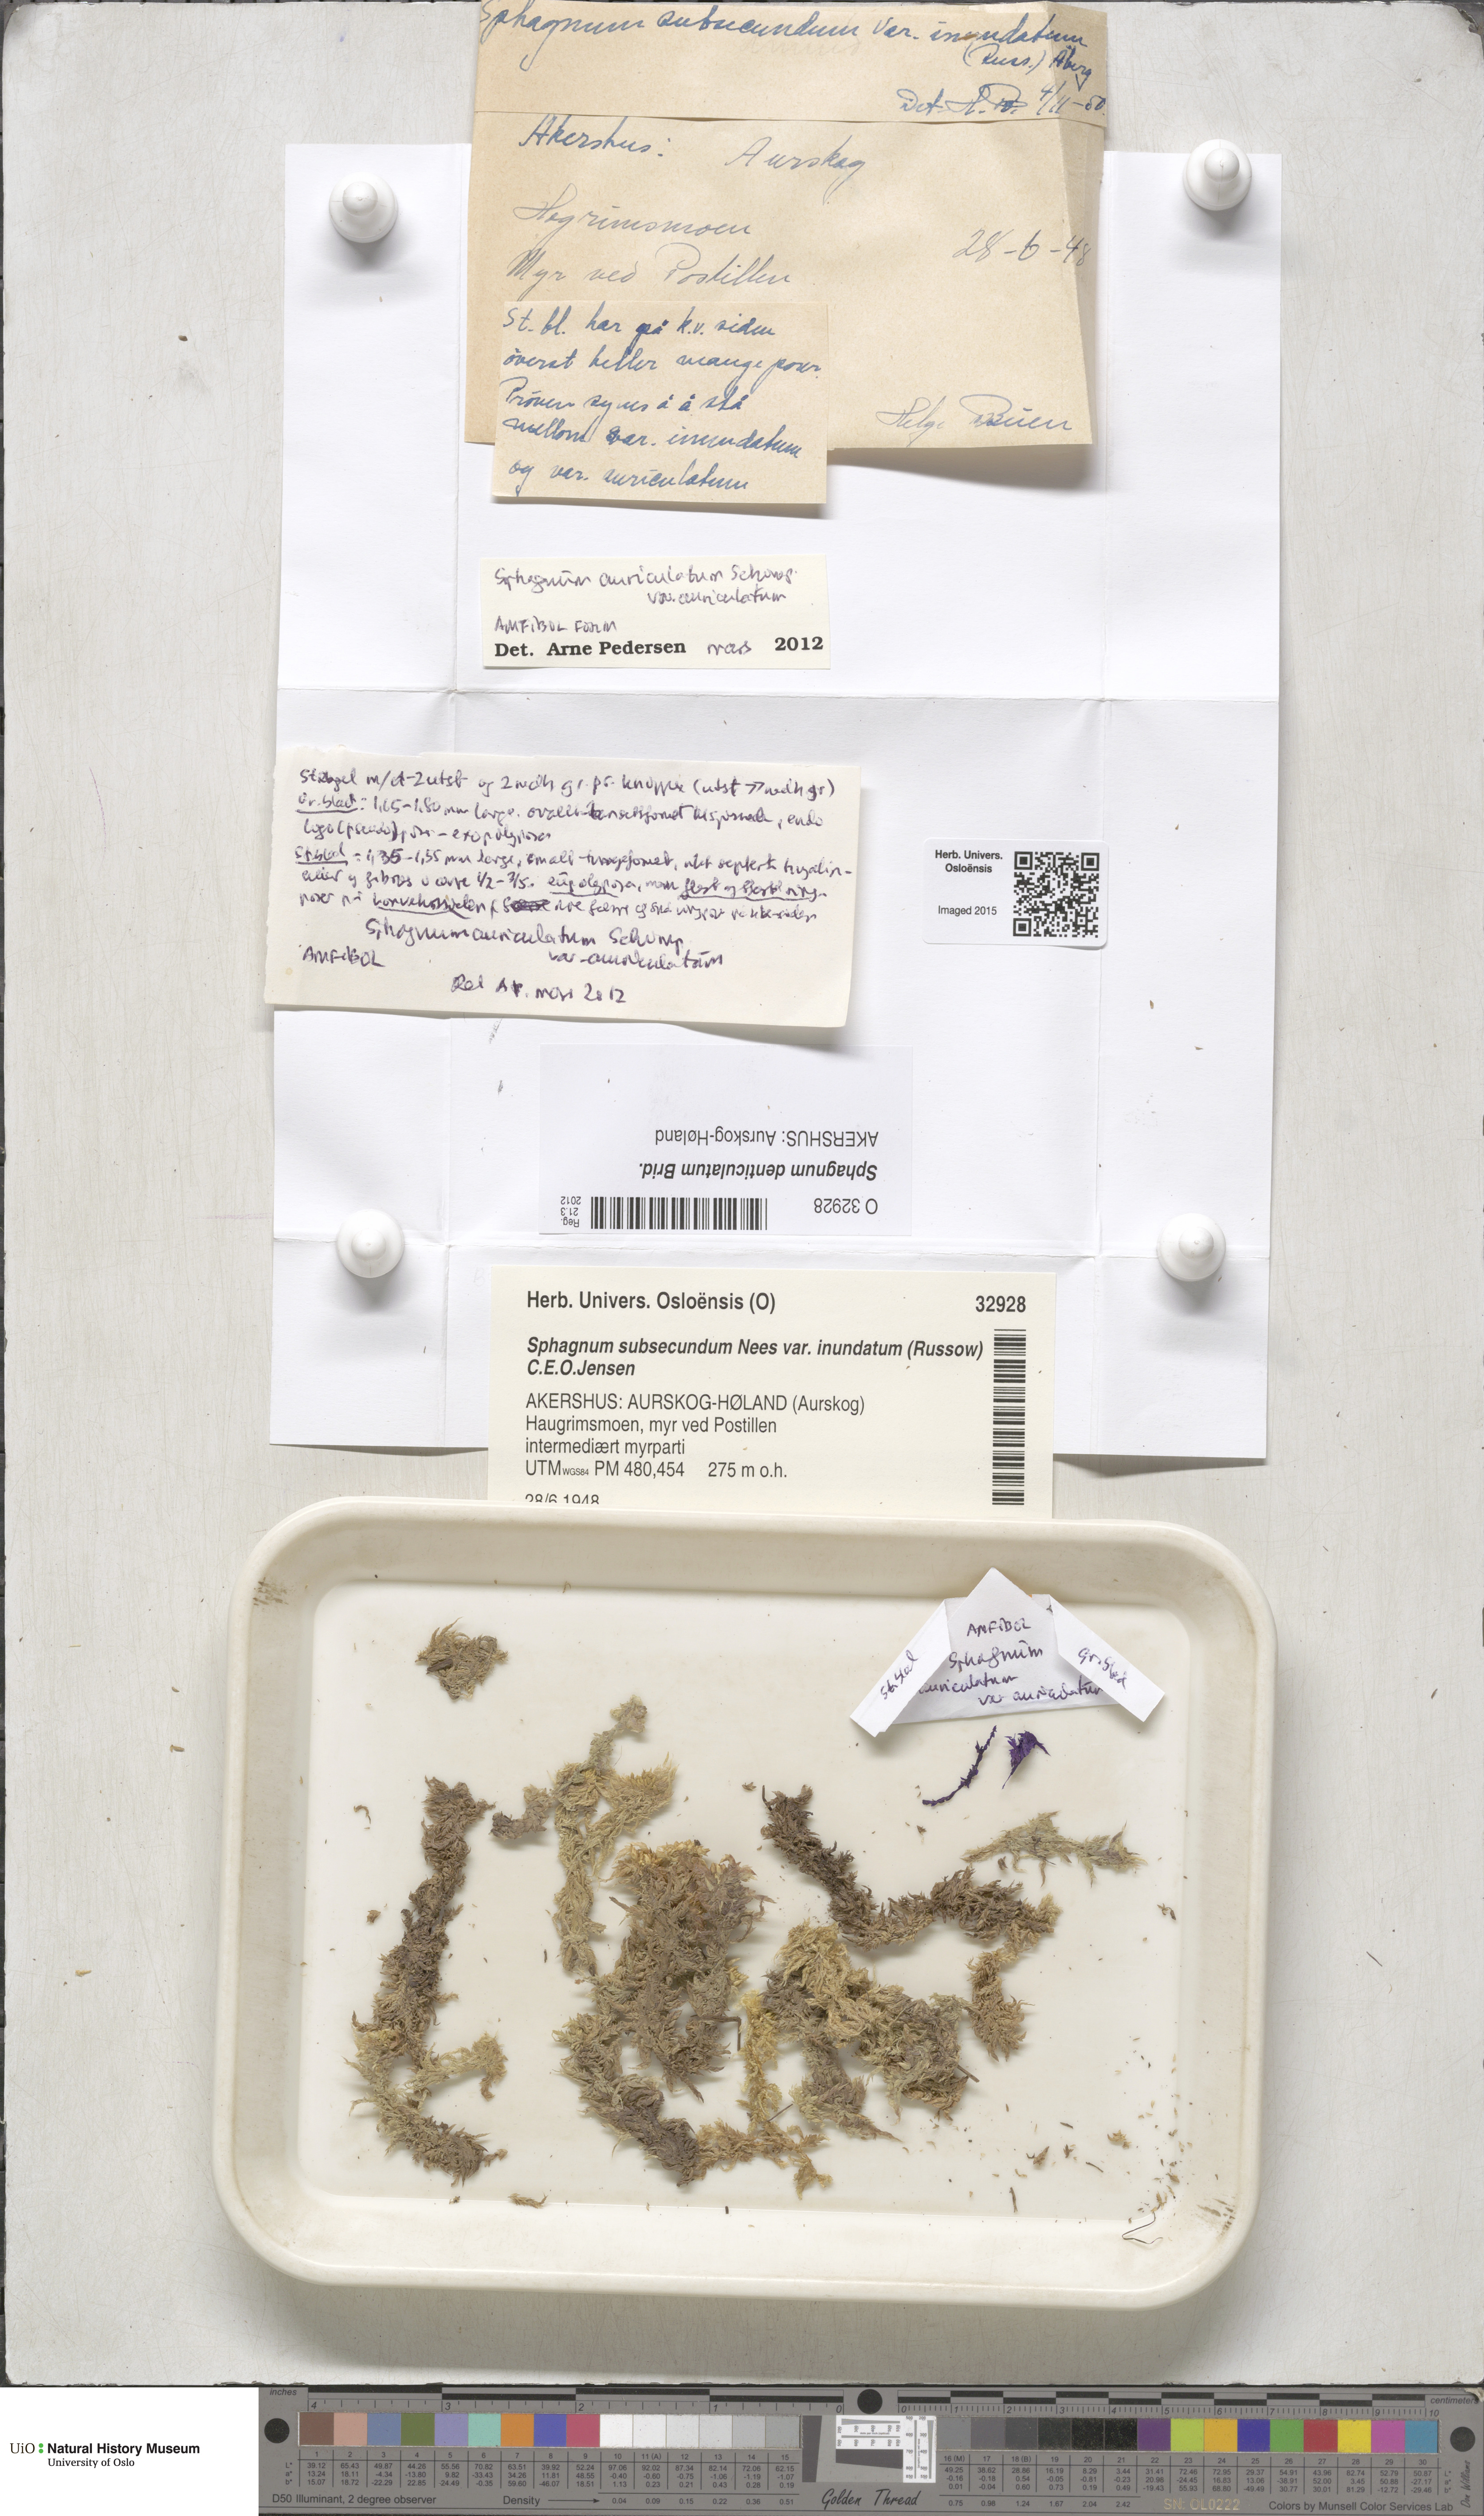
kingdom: Plantae
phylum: Bryophyta
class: Sphagnopsida
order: Sphagnales
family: Sphagnaceae
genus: Sphagnum
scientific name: Sphagnum denticulatum
